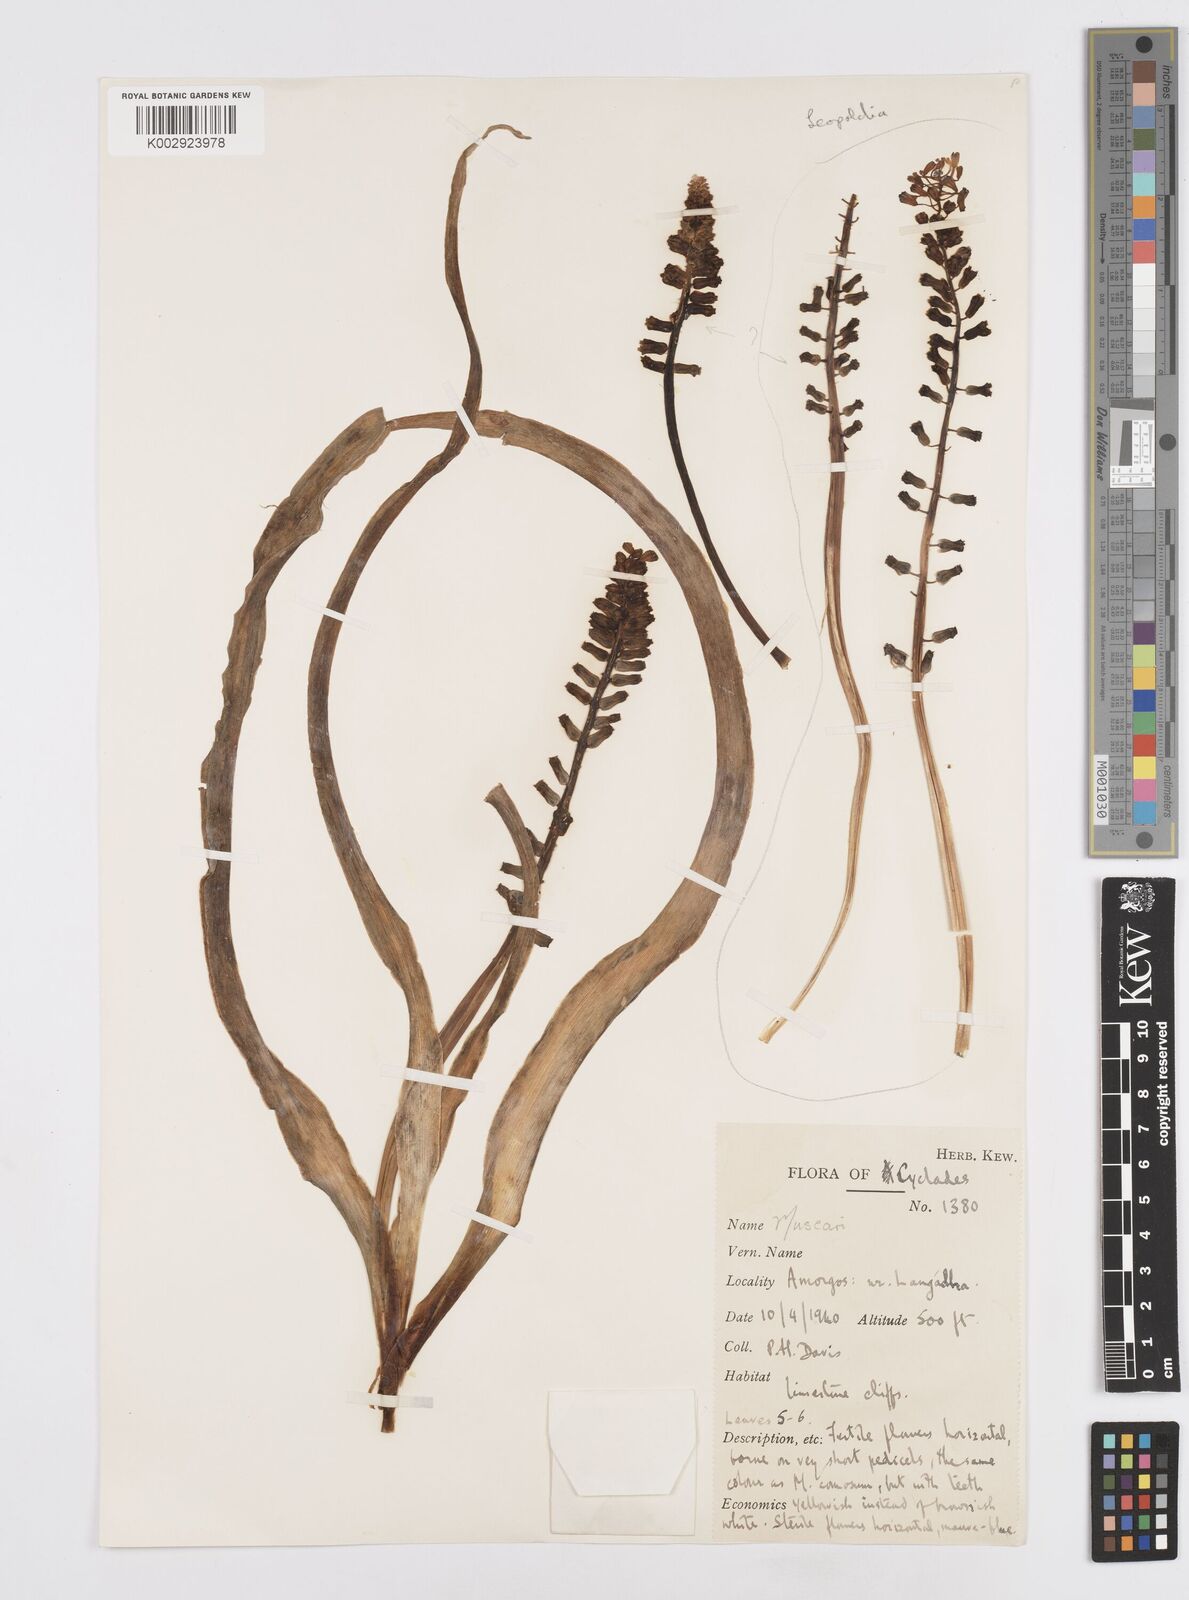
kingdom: Plantae
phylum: Tracheophyta
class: Liliopsida
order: Asparagales
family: Asparagaceae
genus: Muscarimia
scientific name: Muscarimia macrocarpa
